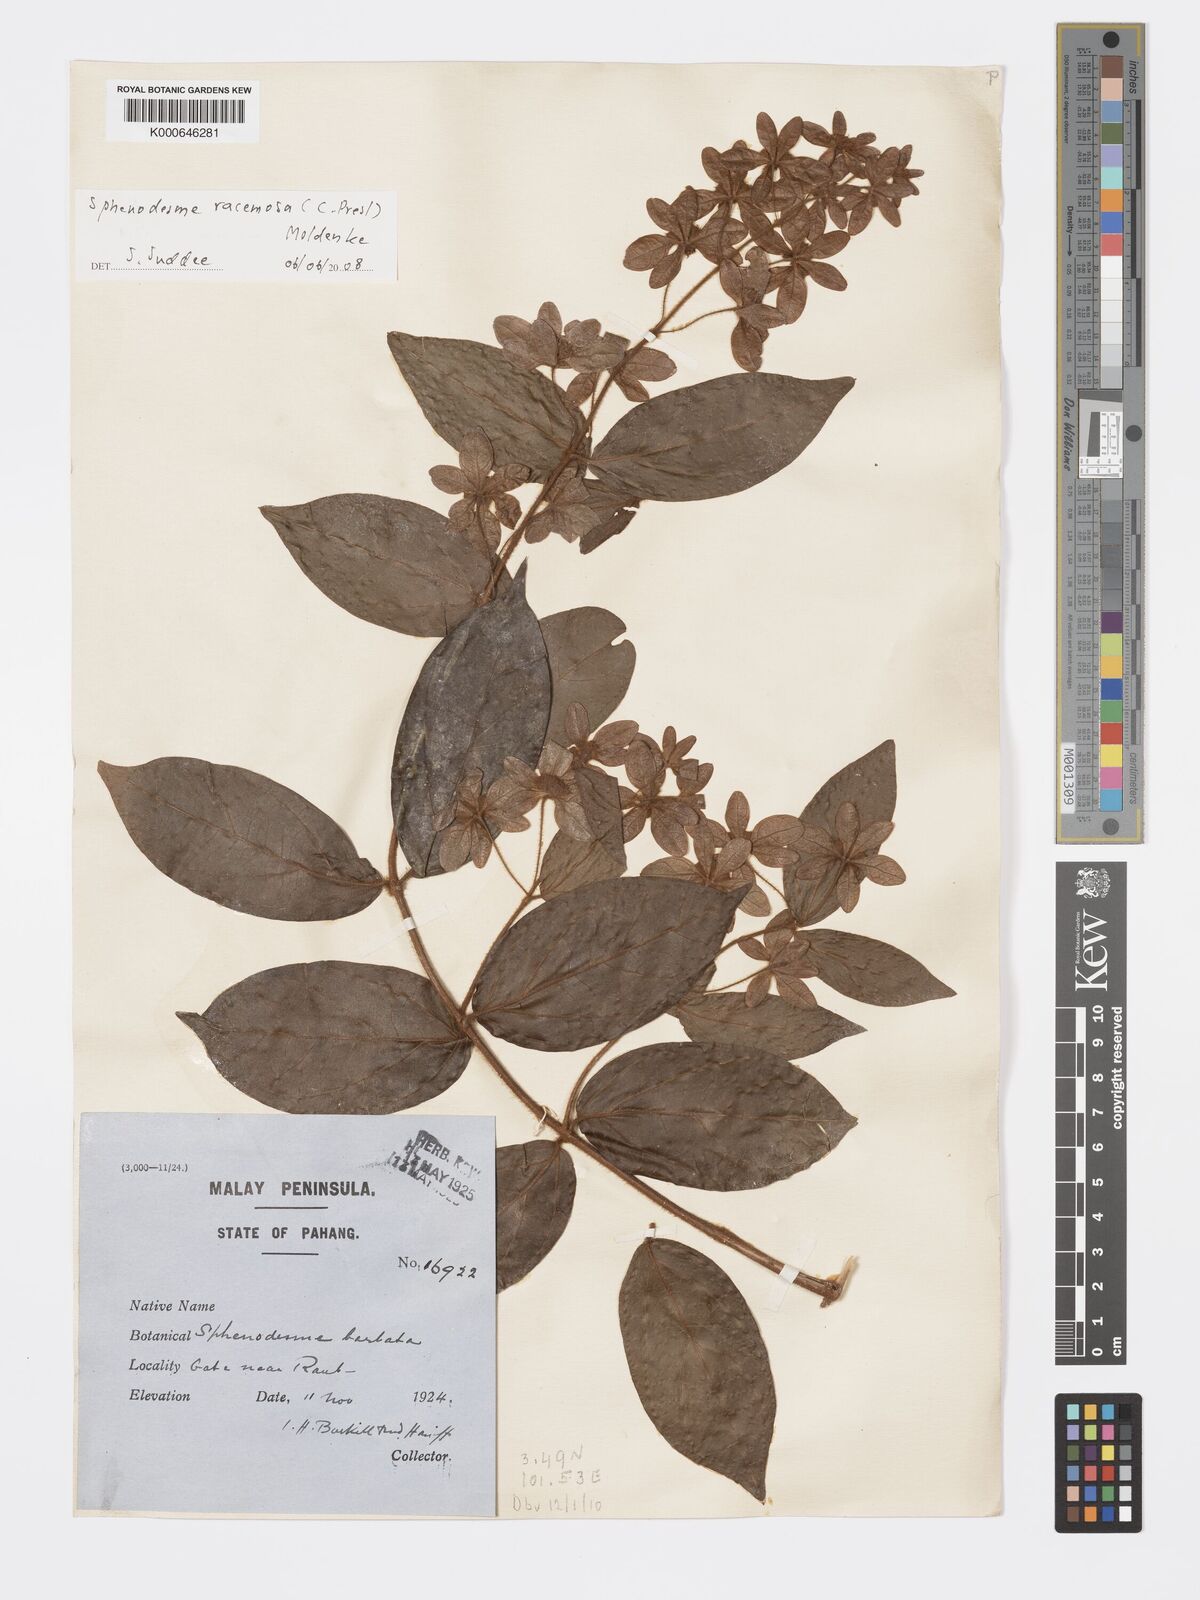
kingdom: Plantae
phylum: Tracheophyta
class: Magnoliopsida
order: Lamiales
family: Lamiaceae
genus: Sphenodesme
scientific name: Sphenodesme racemosa
